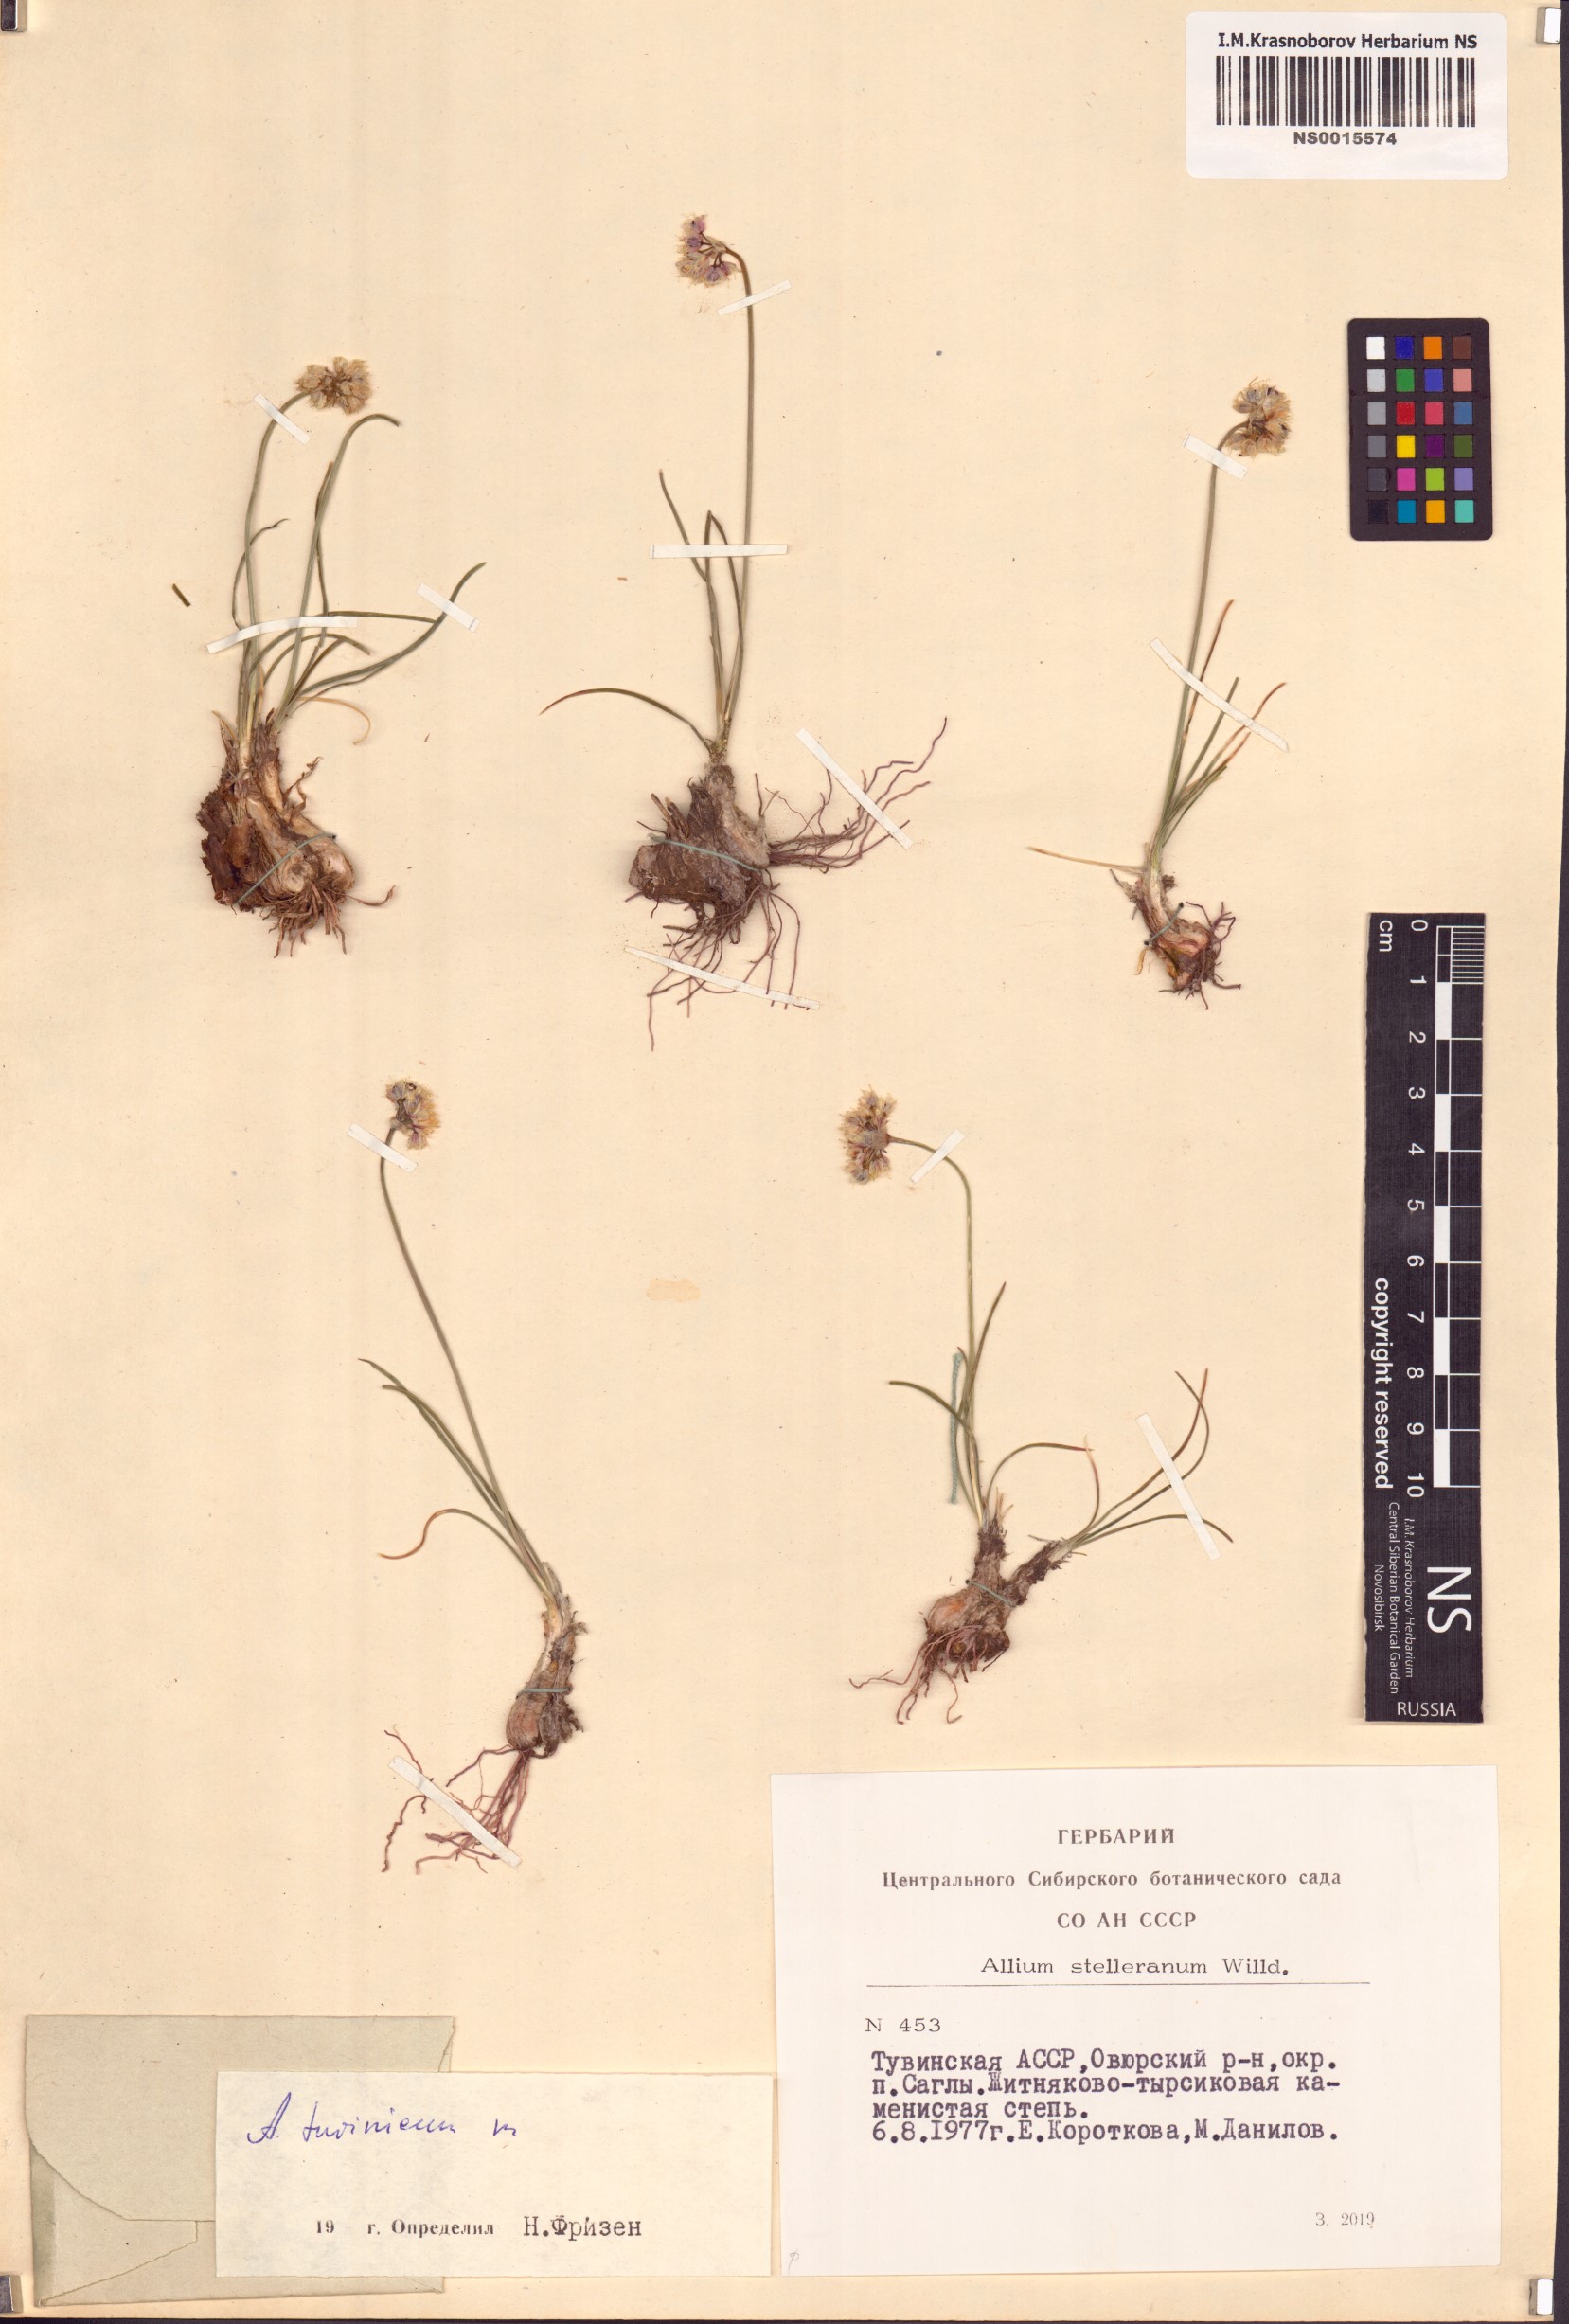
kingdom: Plantae
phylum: Tracheophyta
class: Liliopsida
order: Asparagales
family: Amaryllidaceae
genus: Allium
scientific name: Allium tuvinicum
